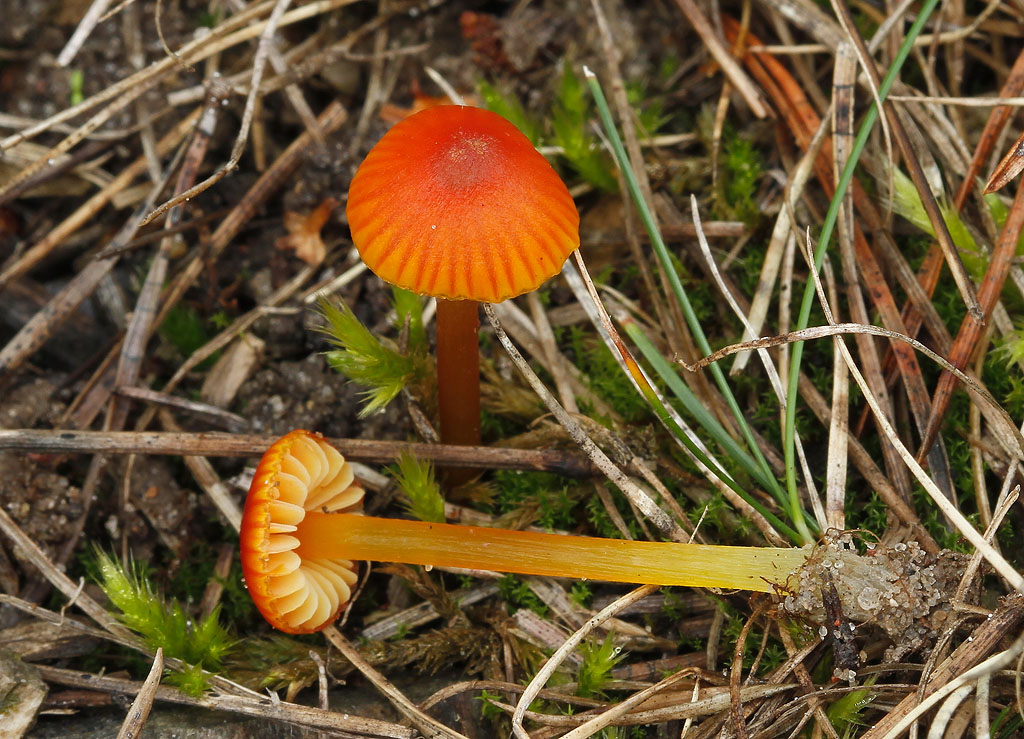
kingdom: Fungi
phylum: Basidiomycota
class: Agaricomycetes
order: Agaricales
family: Hygrophoraceae
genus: Hygrocybe
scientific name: Hygrocybe conica
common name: kegle-vokshat
